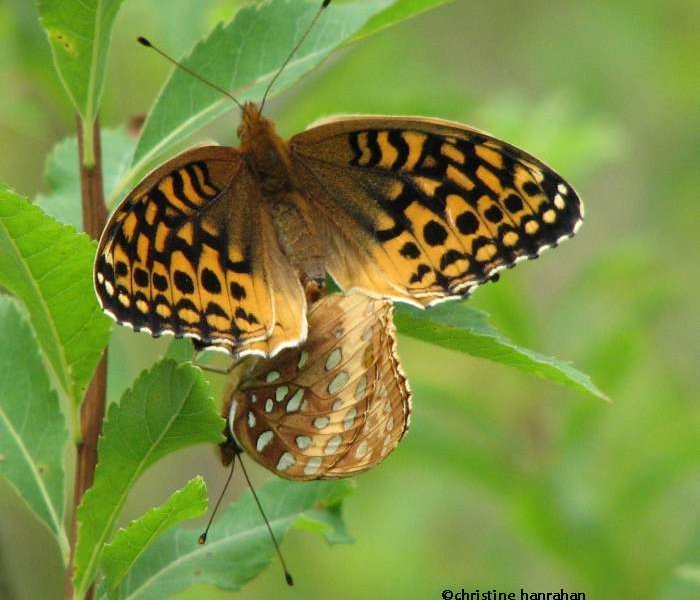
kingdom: Animalia
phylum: Arthropoda
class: Insecta
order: Lepidoptera
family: Nymphalidae
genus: Speyeria
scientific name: Speyeria cybele
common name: Great Spangled Fritillary
